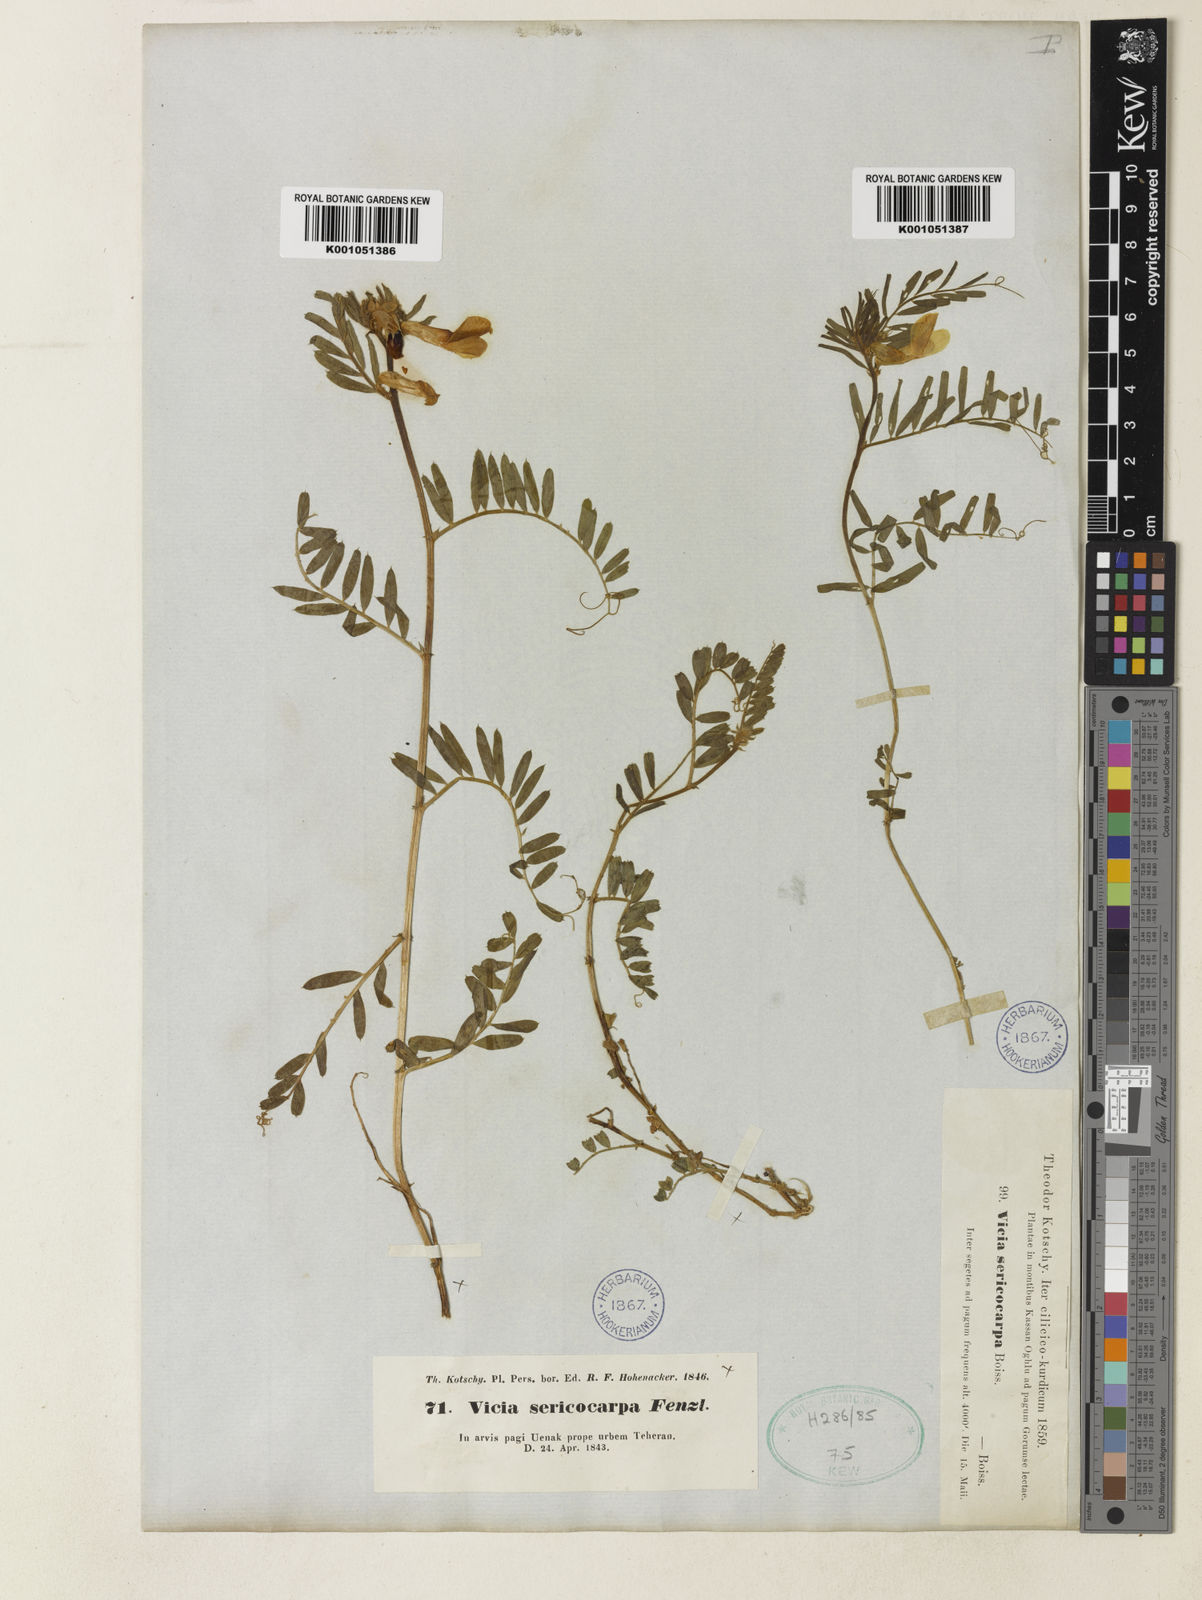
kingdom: Plantae
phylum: Tracheophyta
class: Magnoliopsida
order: Fabales
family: Fabaceae
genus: Vicia
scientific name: Vicia sericocarpa
